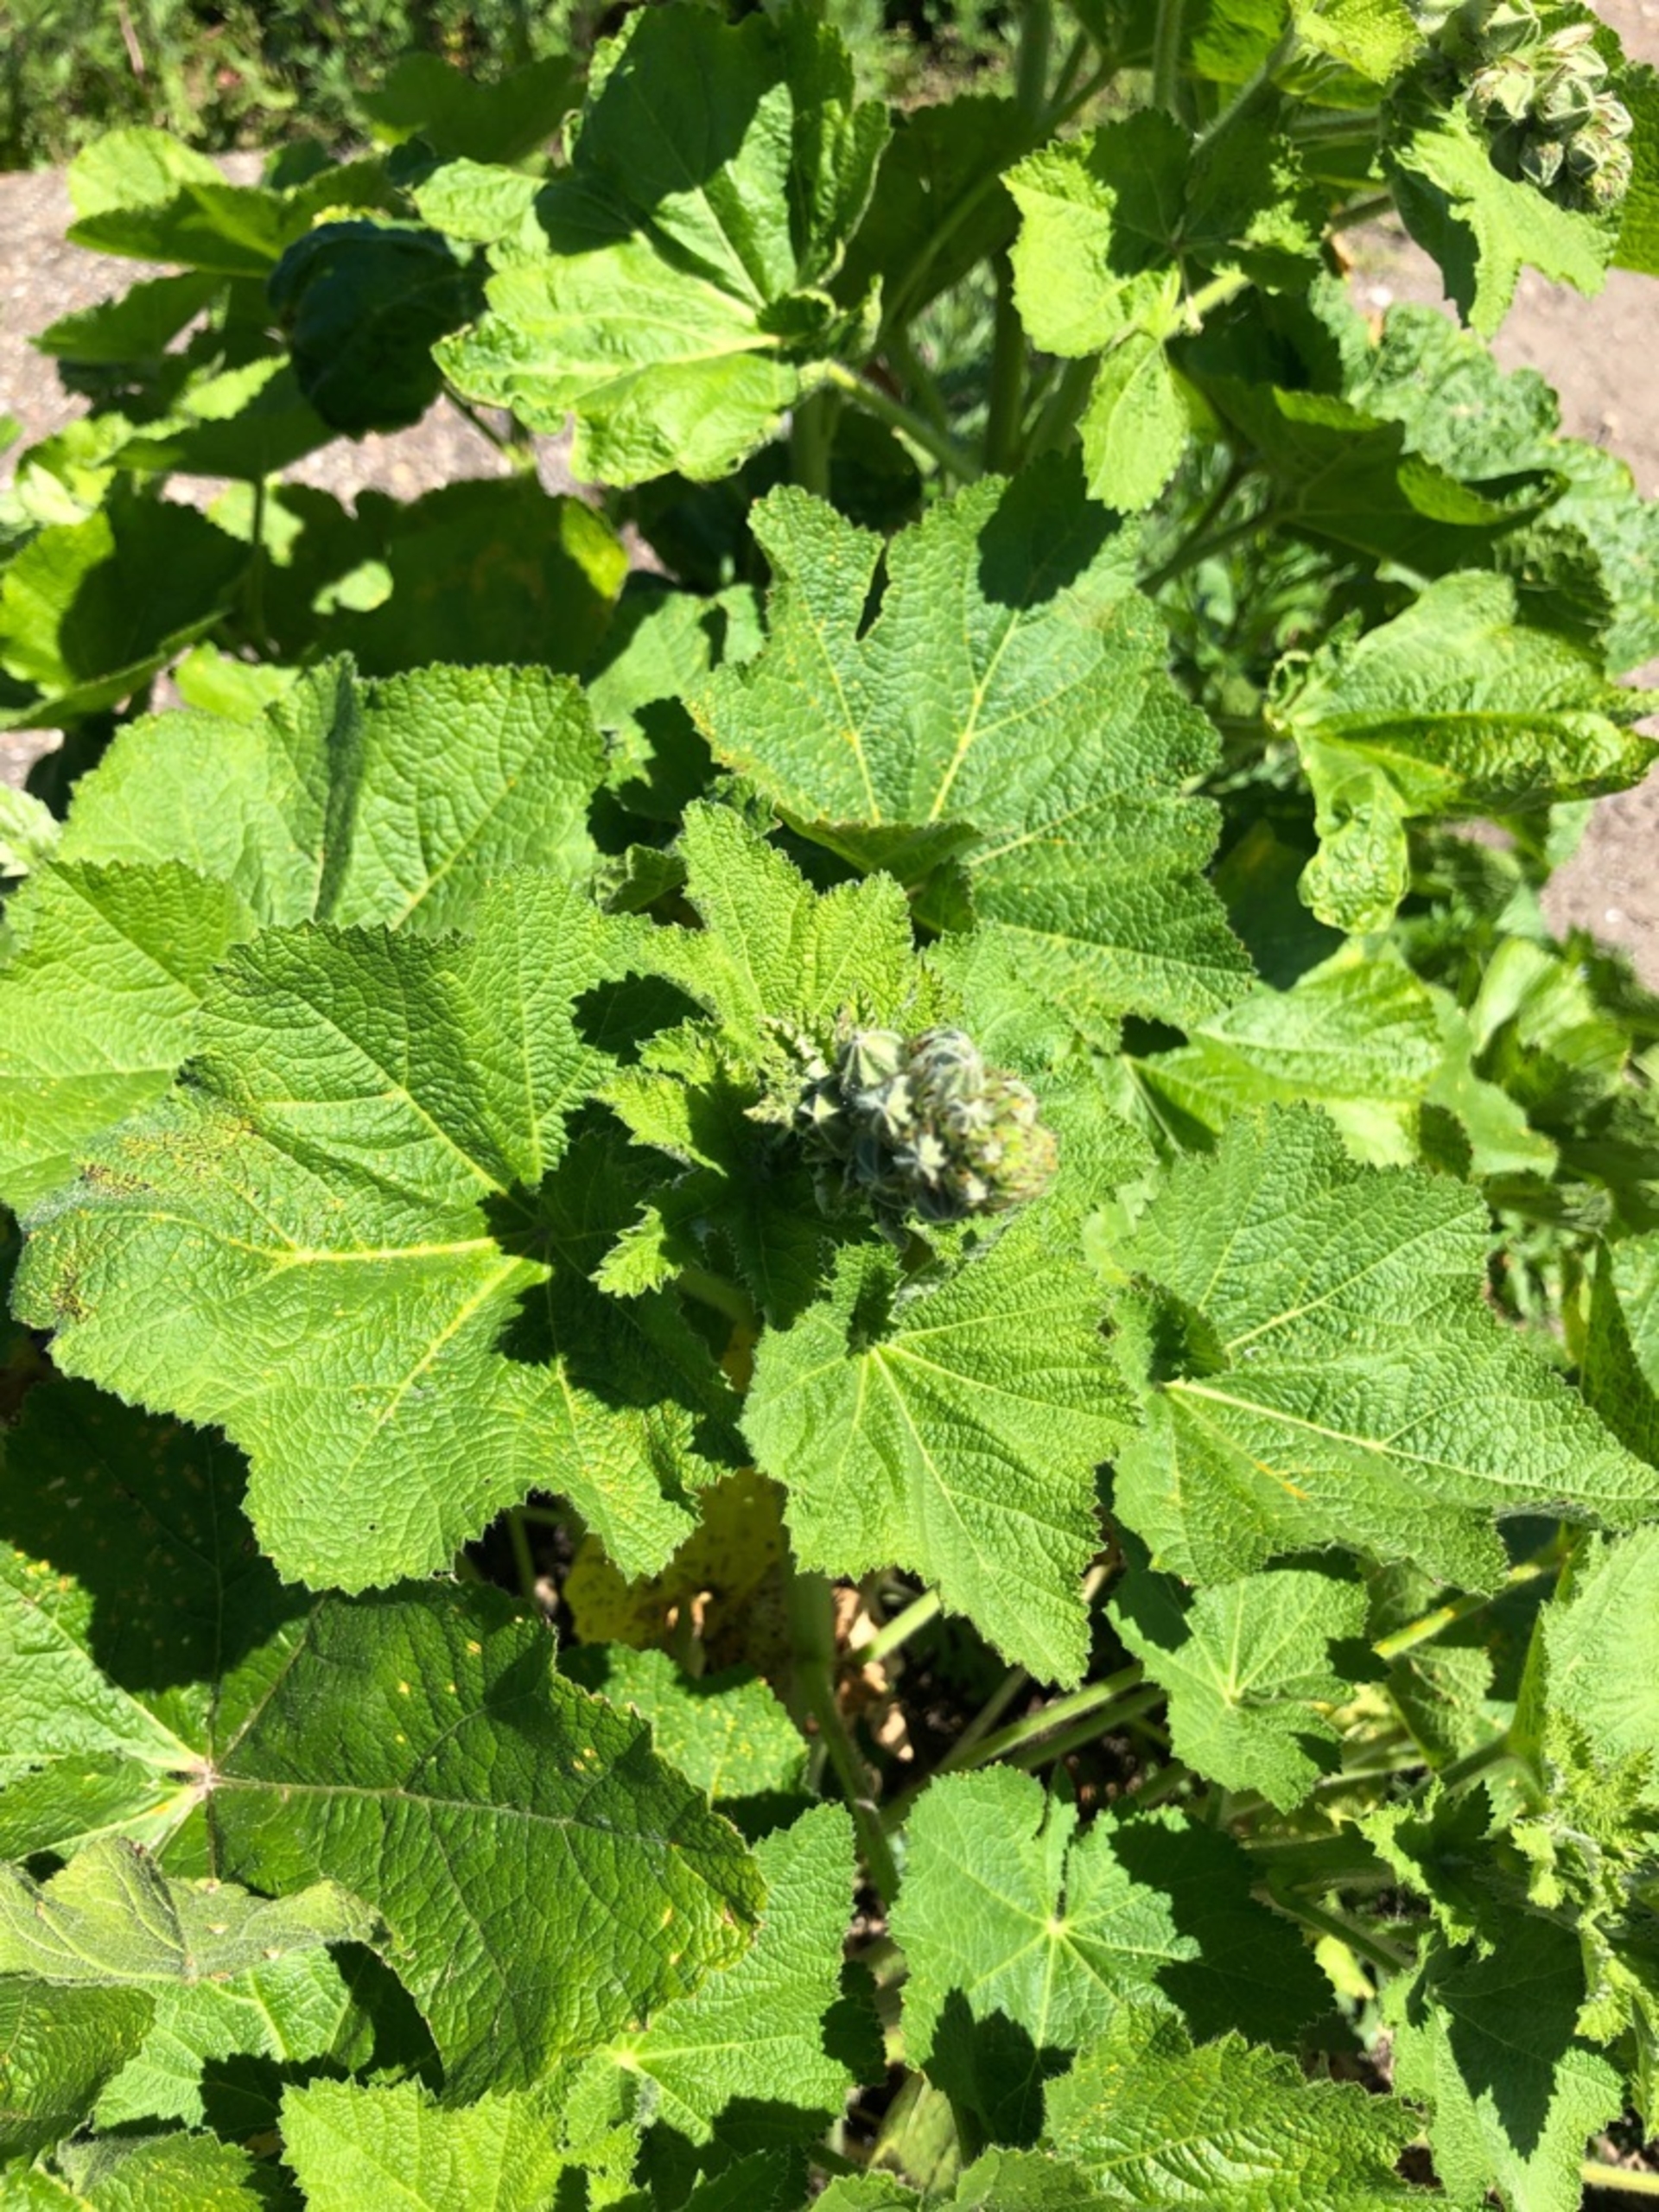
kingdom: Plantae
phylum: Tracheophyta
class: Magnoliopsida
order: Malvales
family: Malvaceae
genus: Alcea
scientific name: Alcea rosea
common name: Have-stokrose
